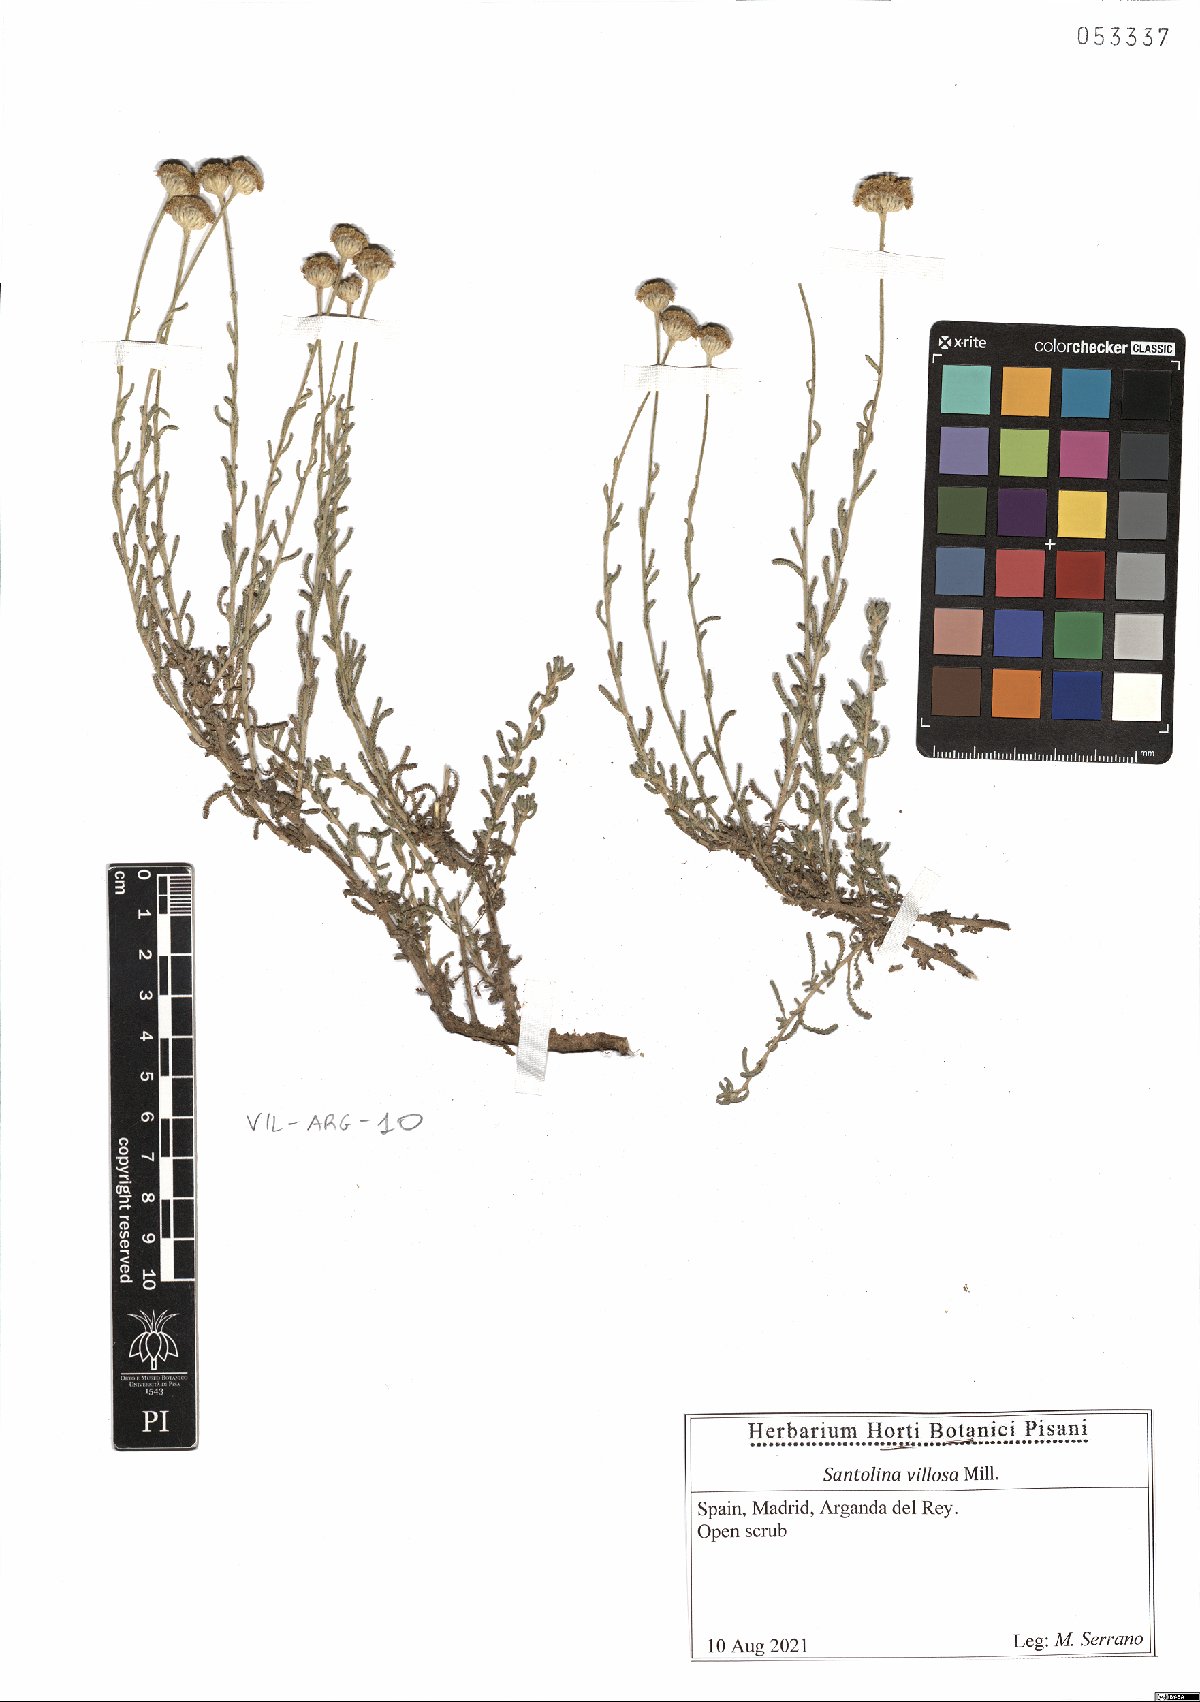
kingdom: Plantae
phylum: Tracheophyta
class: Magnoliopsida
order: Asterales
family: Asteraceae
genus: Santolina
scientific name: Santolina chamaecyparissus
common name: Lavender-cotton
